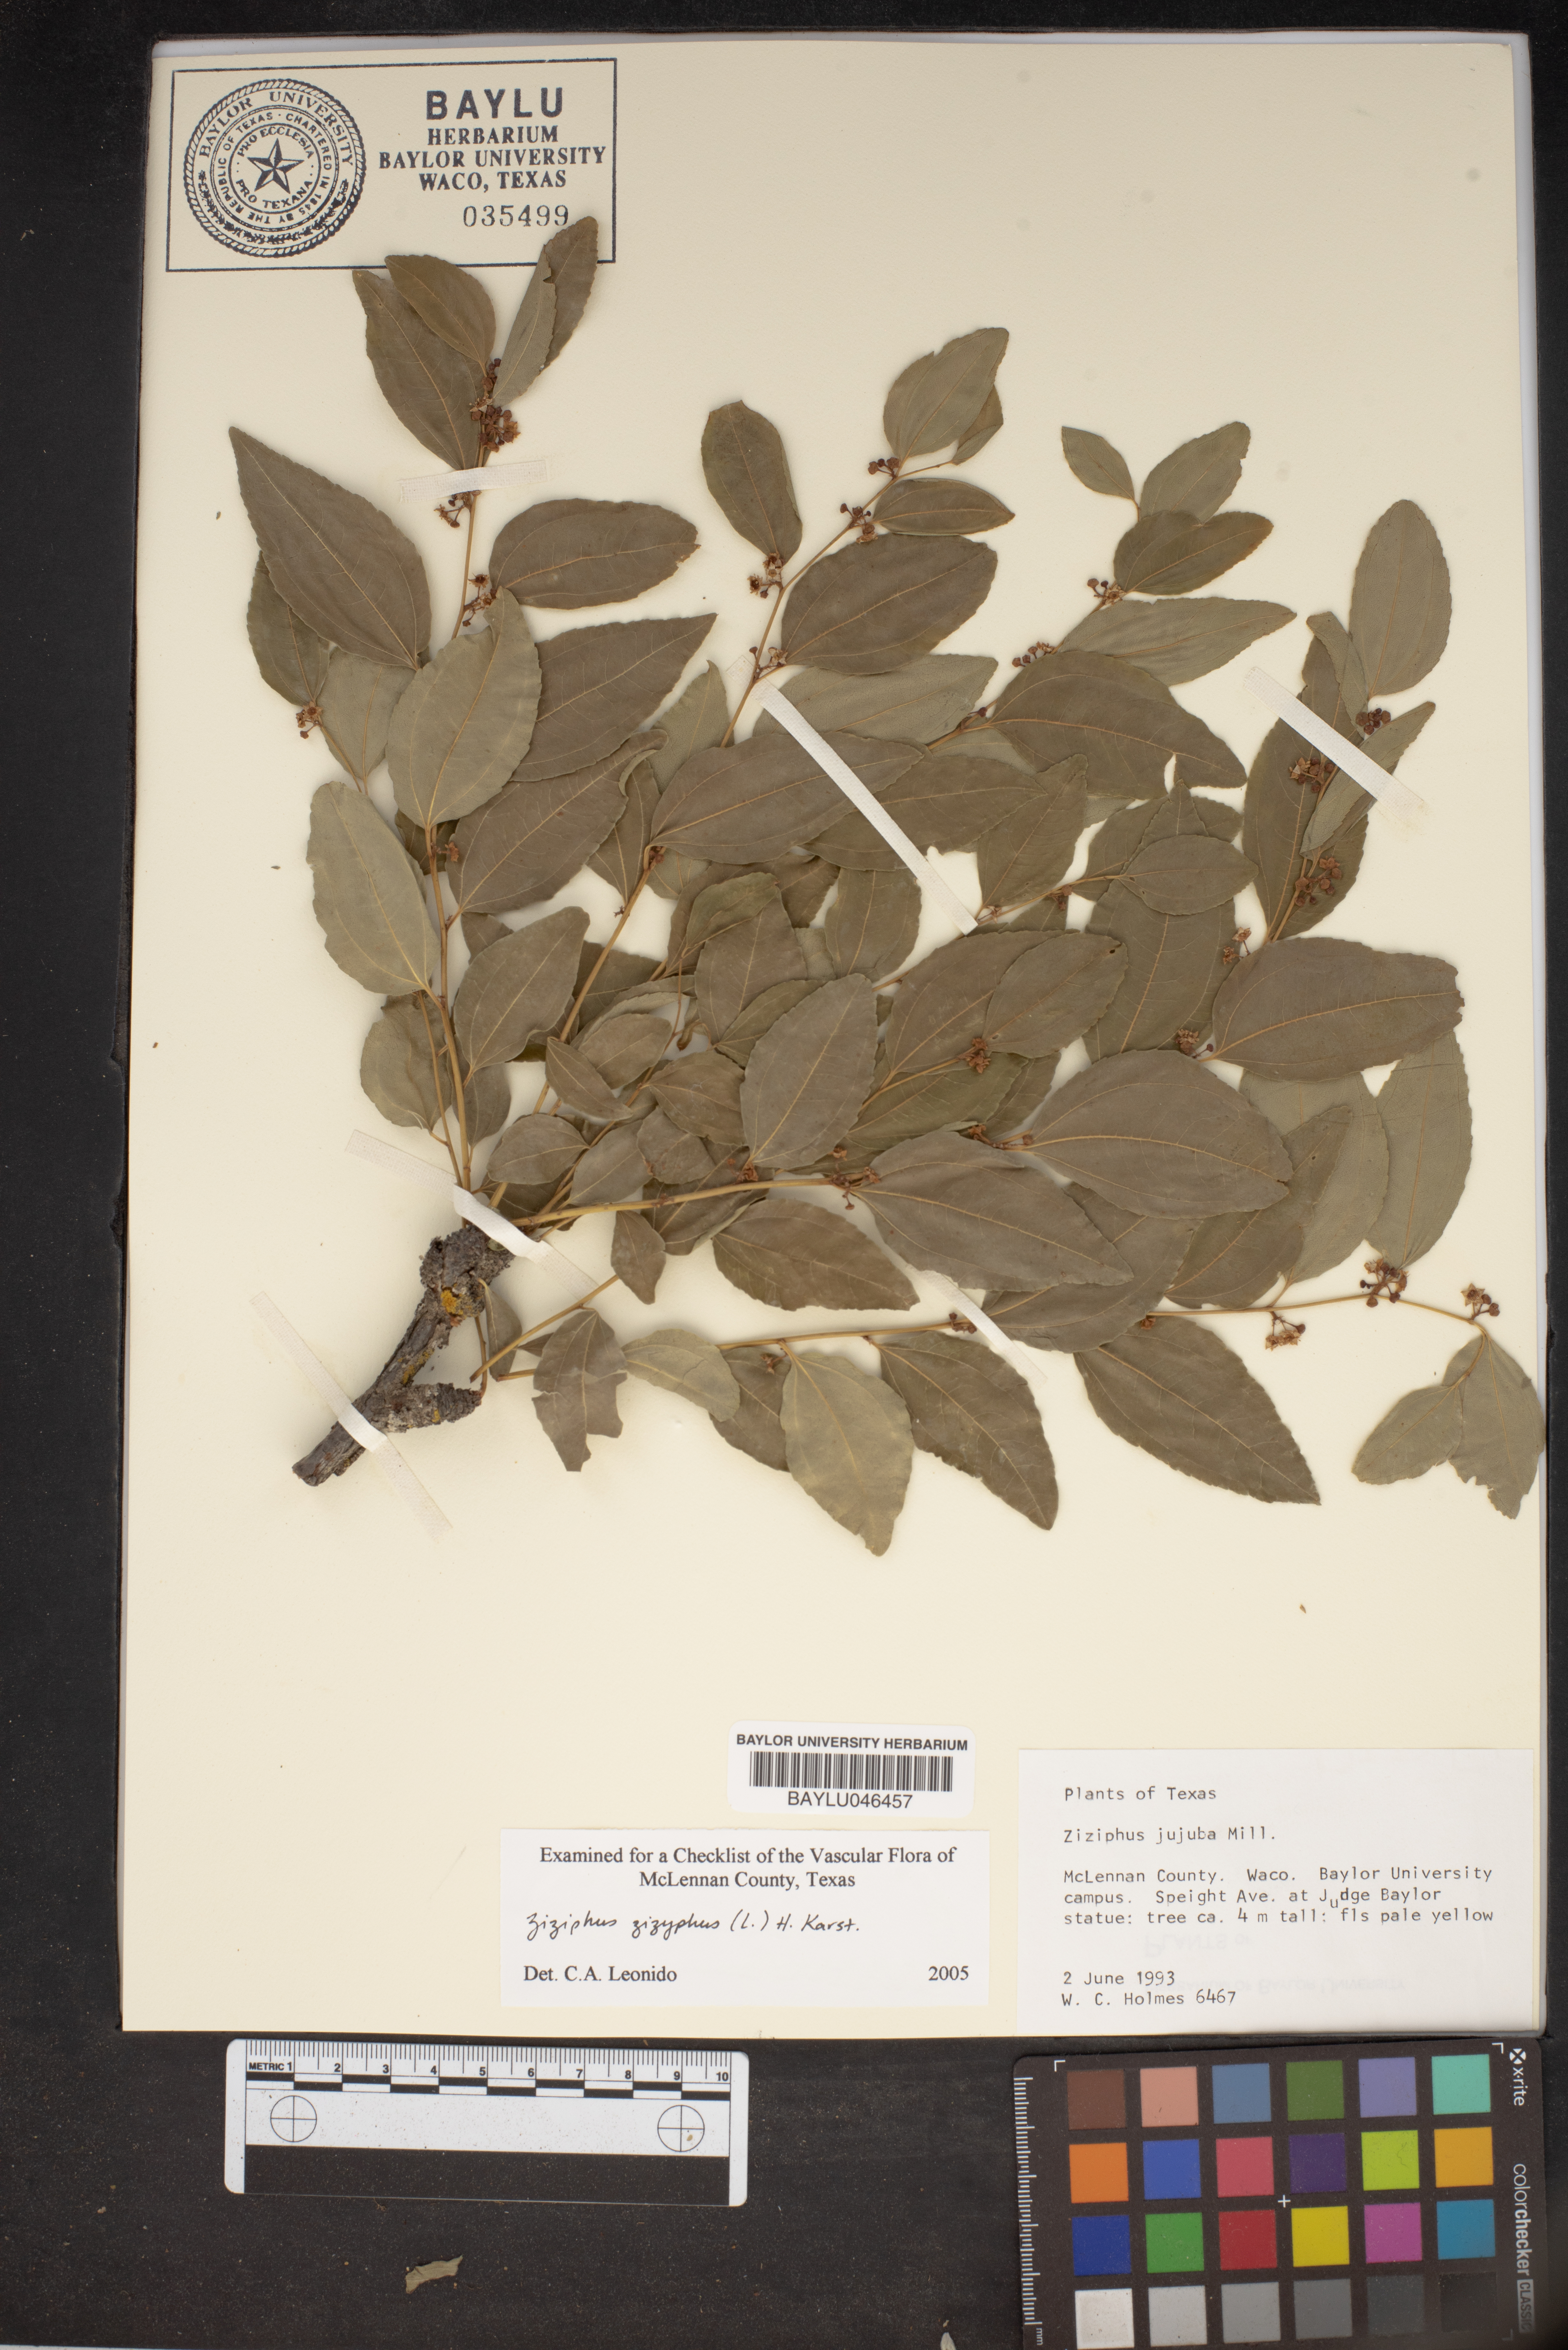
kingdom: Plantae
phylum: Tracheophyta
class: Magnoliopsida
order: Rosales
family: Rhamnaceae
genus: Ziziphus
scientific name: Ziziphus jujuba
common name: Jujube red date
